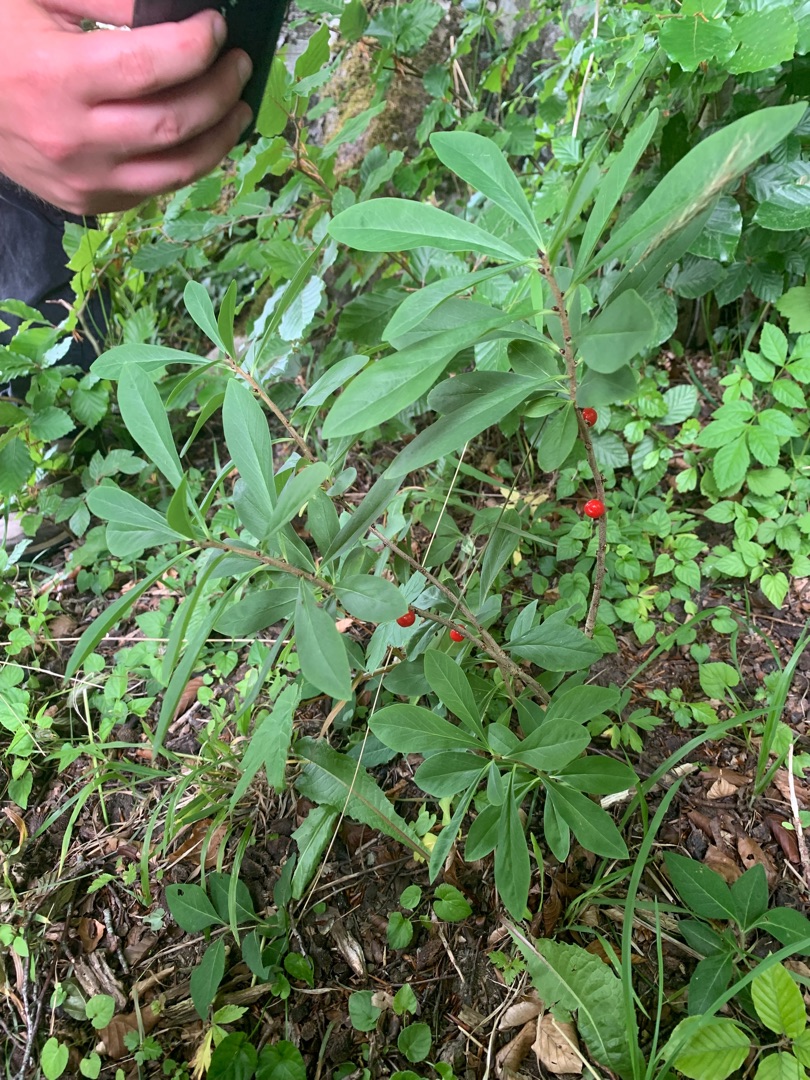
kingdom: Plantae
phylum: Tracheophyta
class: Magnoliopsida
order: Malvales
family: Thymelaeaceae
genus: Daphne
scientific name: Daphne mezereum
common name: Pebertræ
